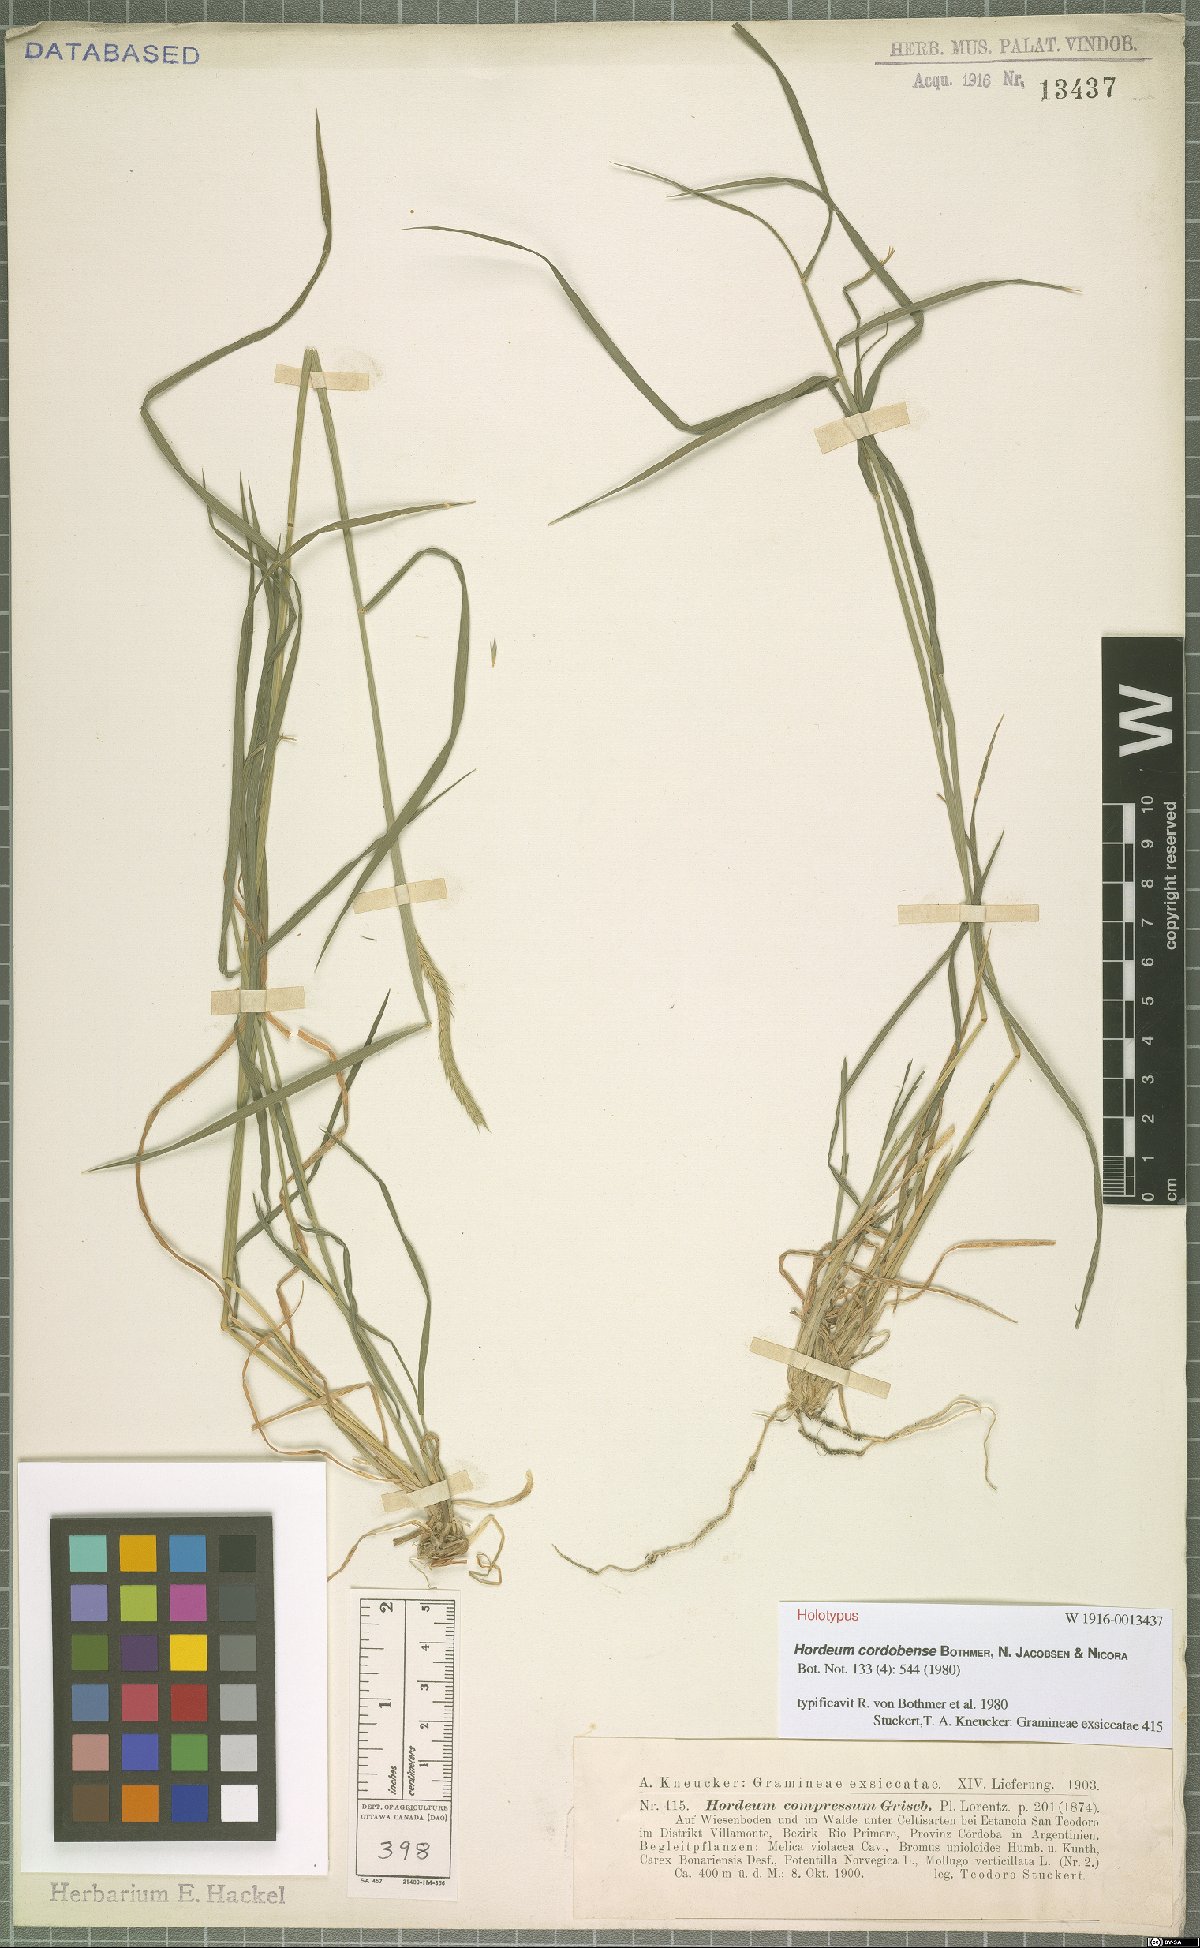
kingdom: Plantae
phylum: Tracheophyta
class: Liliopsida
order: Poales
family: Poaceae
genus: Hordeum
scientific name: Hordeum cordobense
